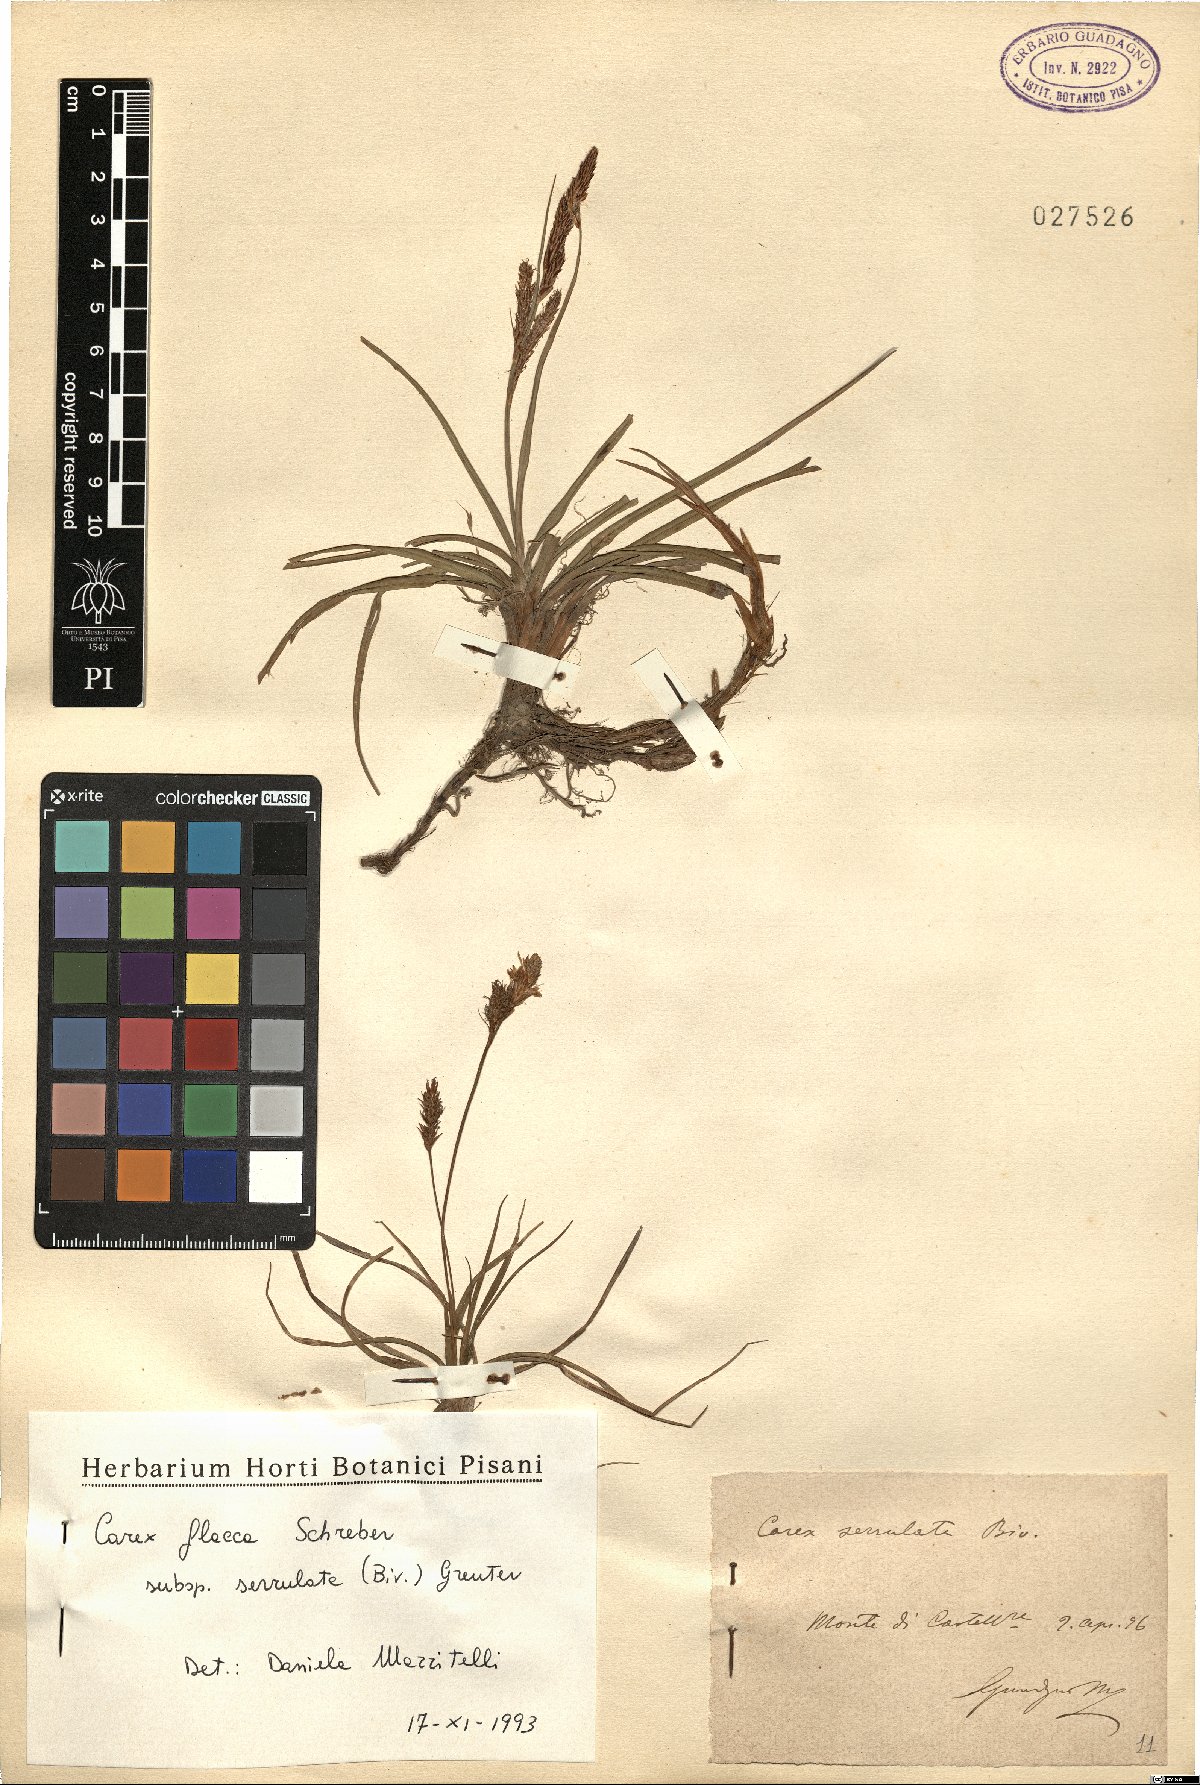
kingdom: Plantae
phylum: Tracheophyta
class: Liliopsida
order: Poales
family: Cyperaceae
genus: Carex
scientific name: Carex flacca
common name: Glaucous sedge
